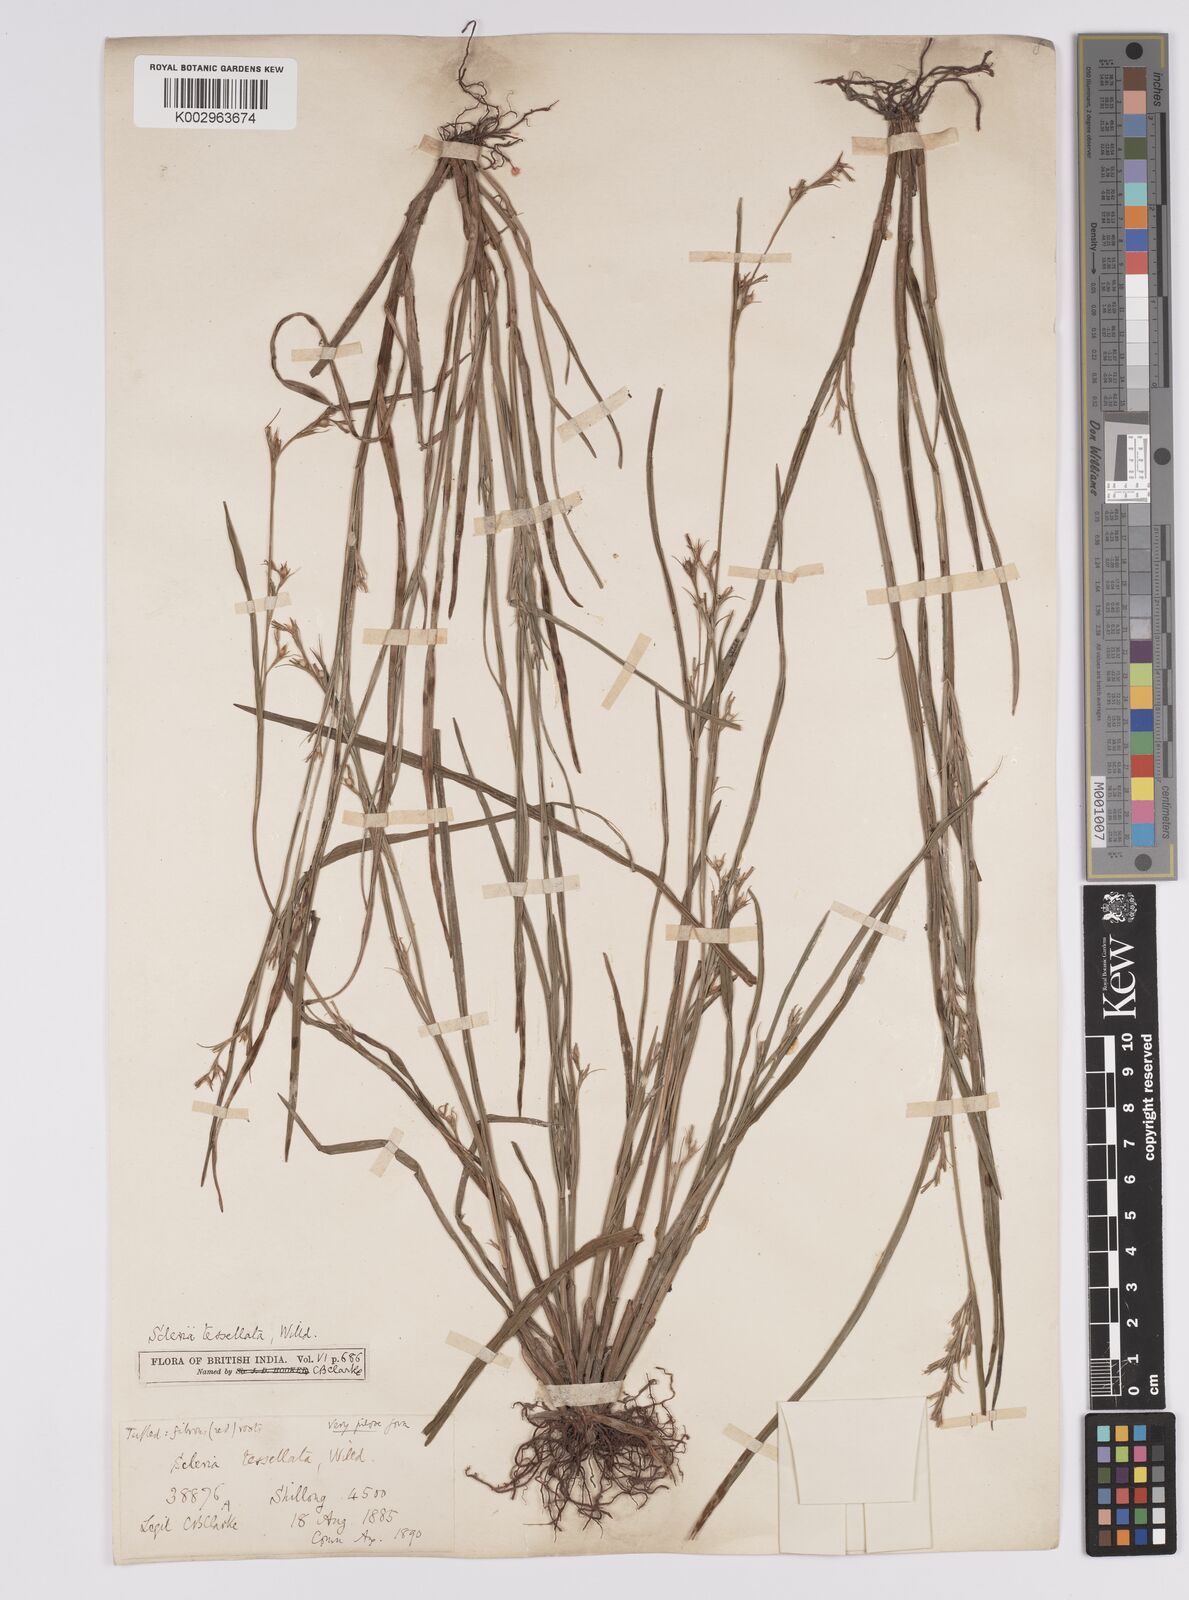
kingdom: Plantae
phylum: Tracheophyta
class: Liliopsida
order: Poales
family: Cyperaceae
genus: Scleria
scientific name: Scleria parvula
